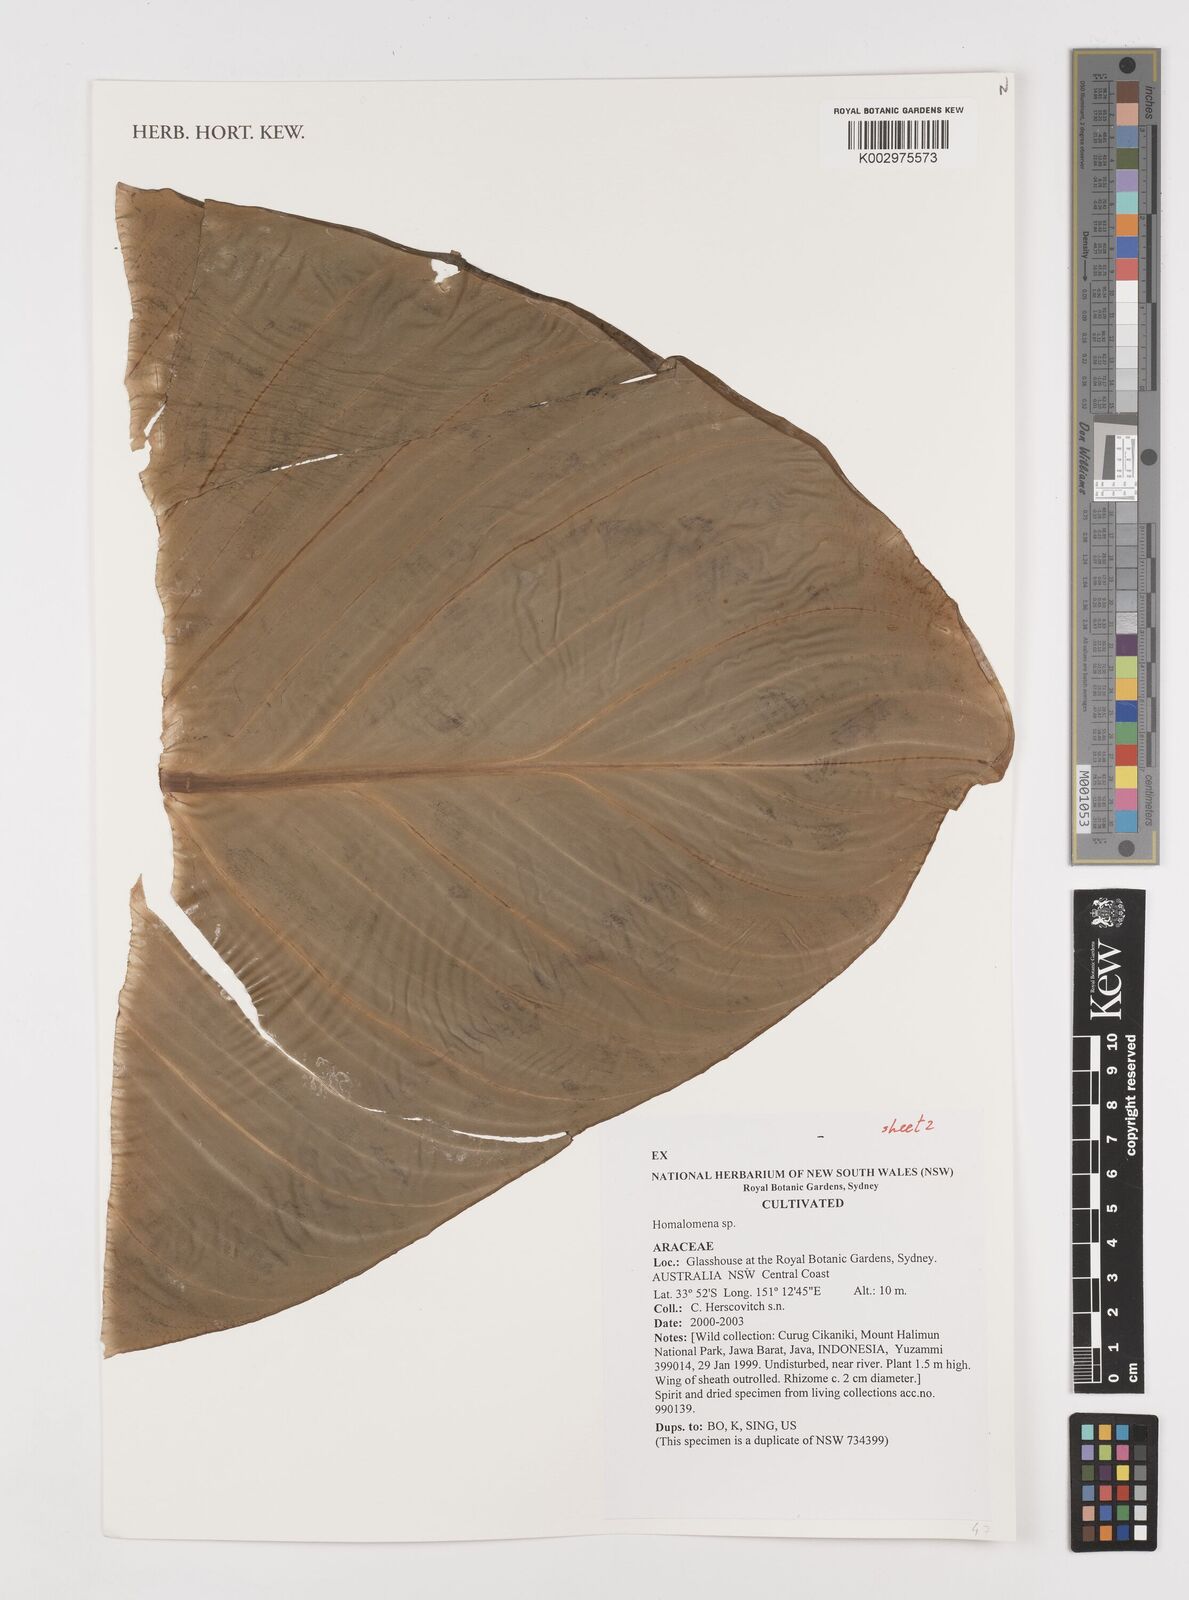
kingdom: Plantae
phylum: Tracheophyta
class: Liliopsida
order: Alismatales
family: Araceae
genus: Homalomena
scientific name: Homalomena
